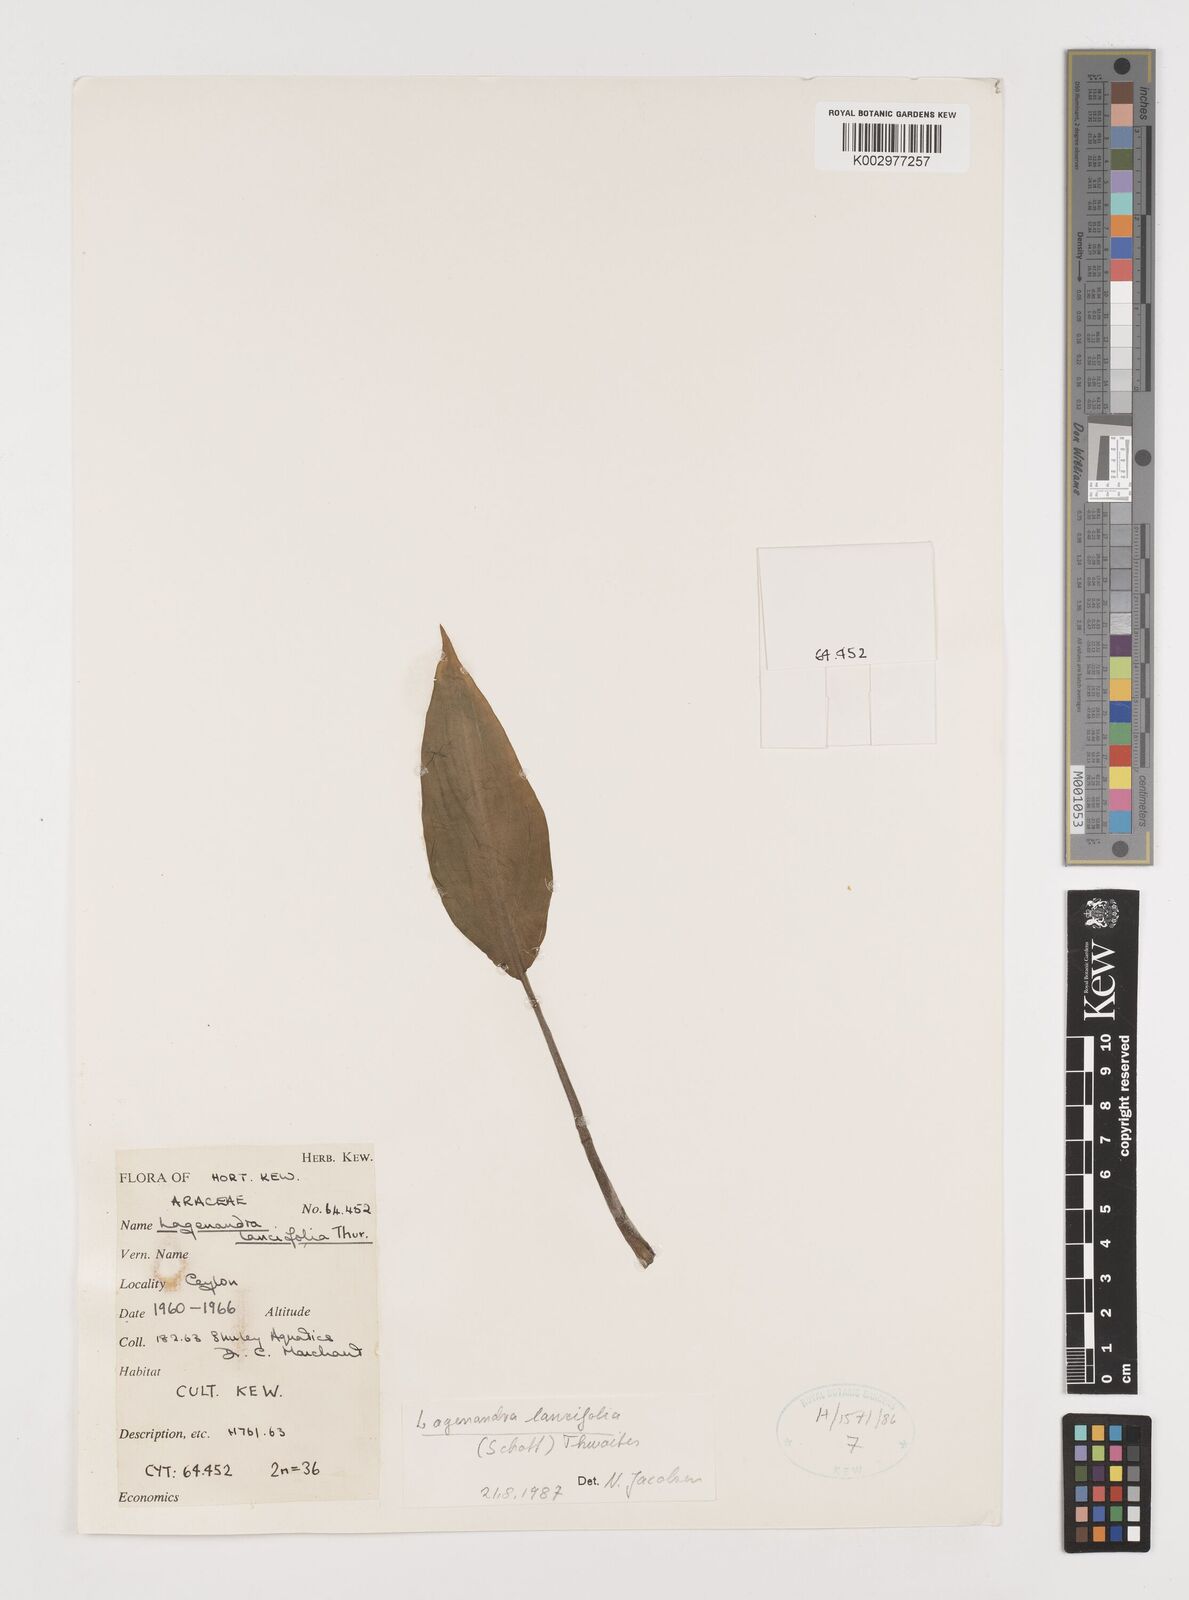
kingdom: Plantae
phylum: Tracheophyta
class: Liliopsida
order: Alismatales
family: Araceae
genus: Lagenandra
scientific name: Lagenandra lancifolia
